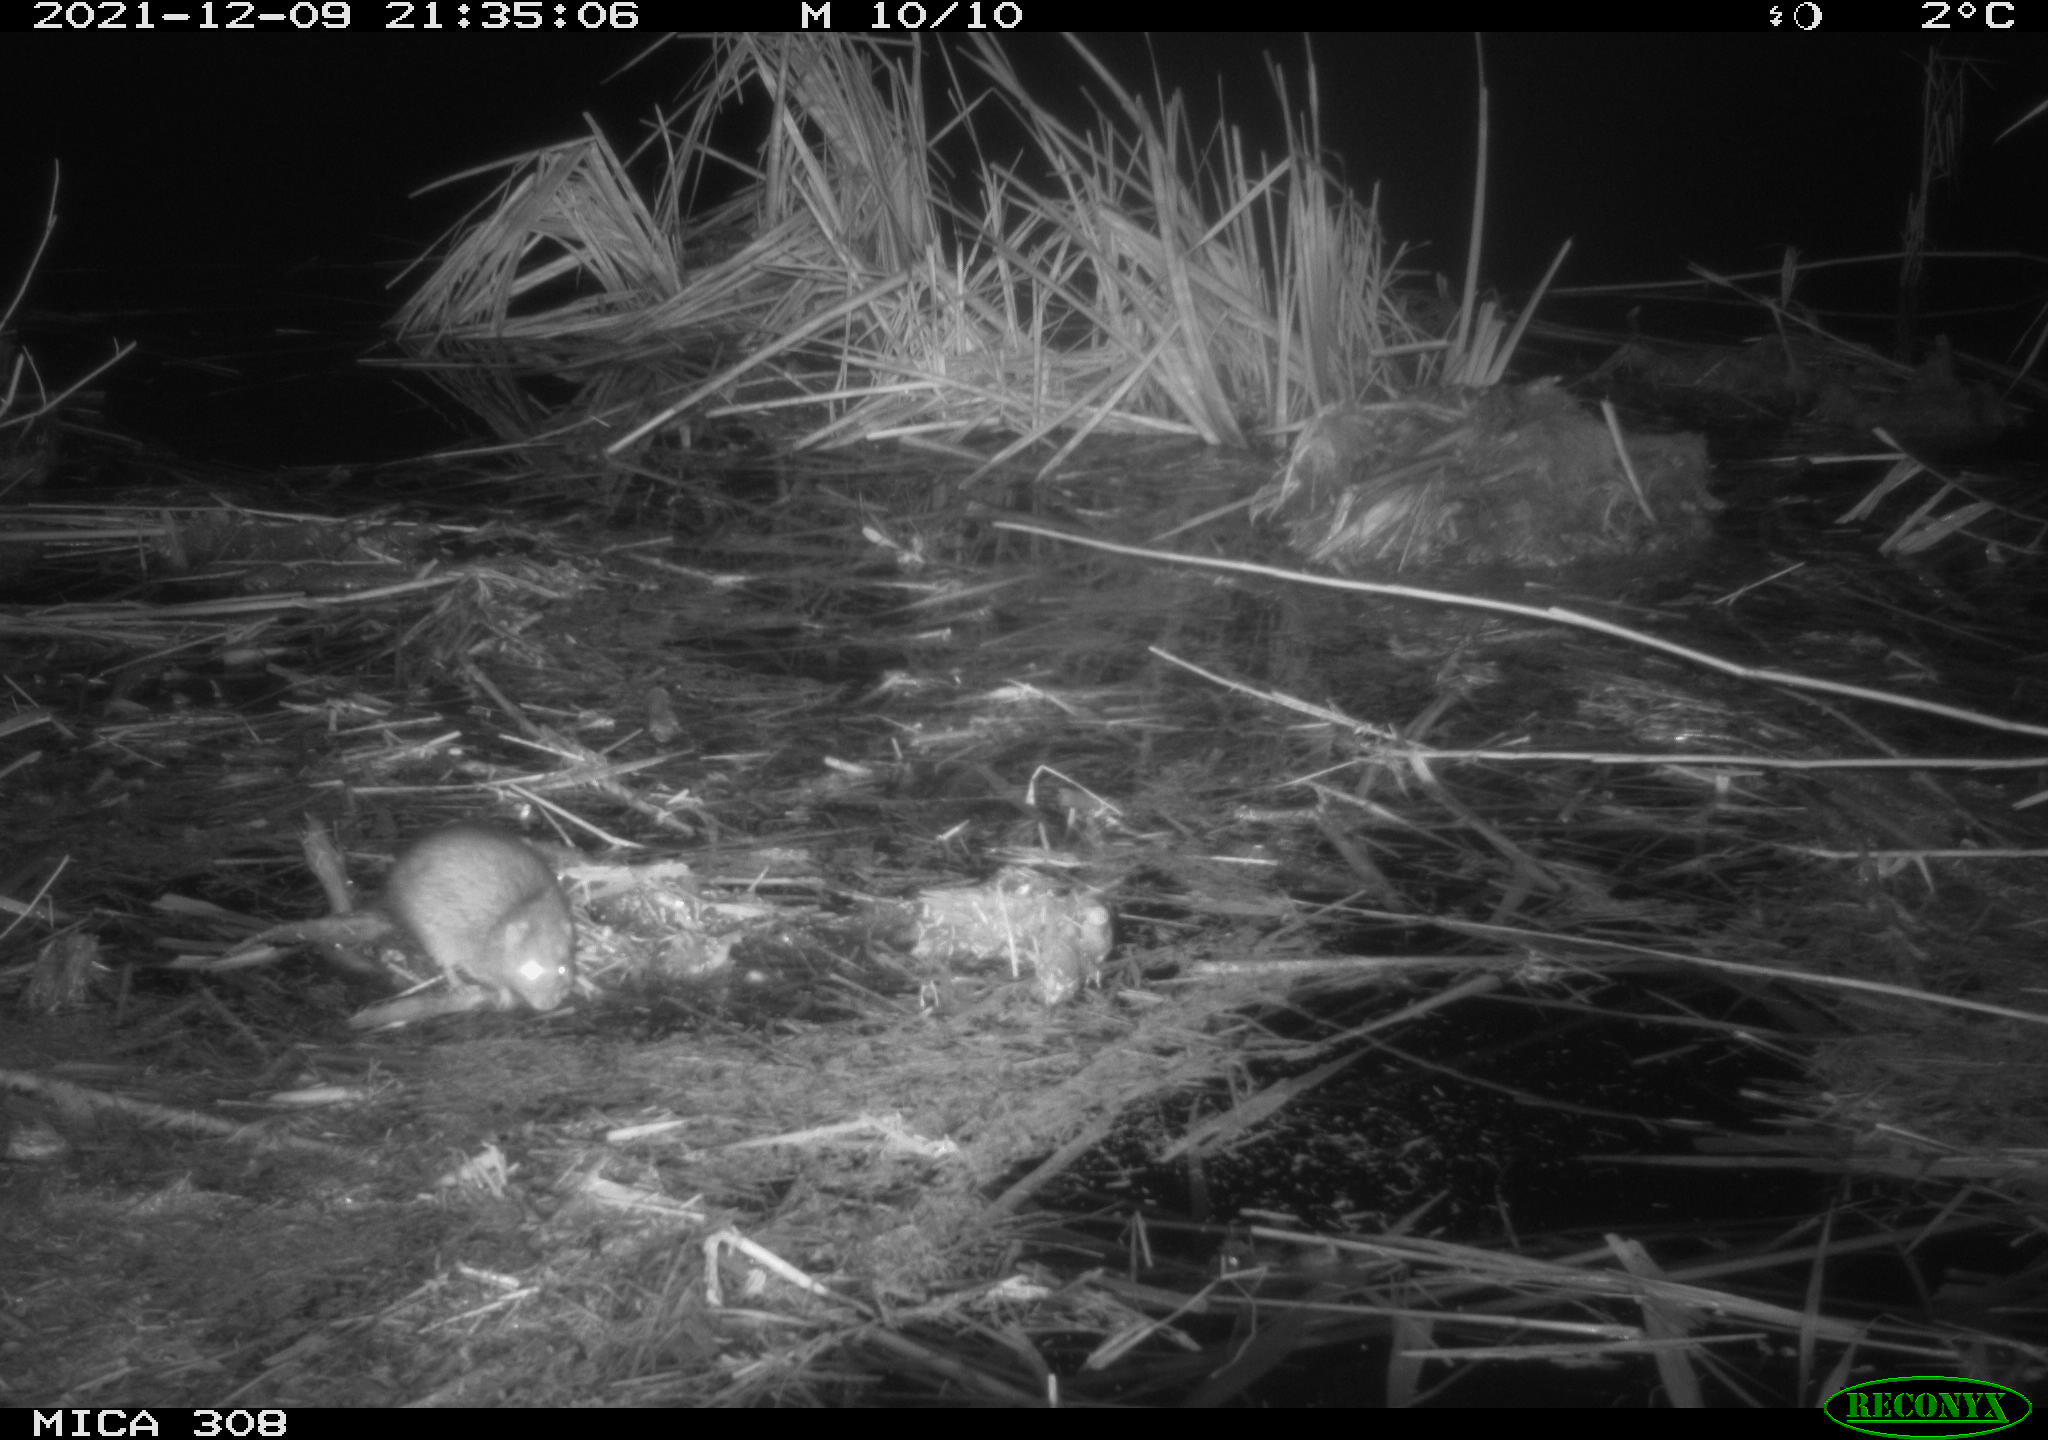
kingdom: Animalia
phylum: Chordata
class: Mammalia
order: Rodentia
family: Muridae
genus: Rattus
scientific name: Rattus norvegicus
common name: Brown rat
